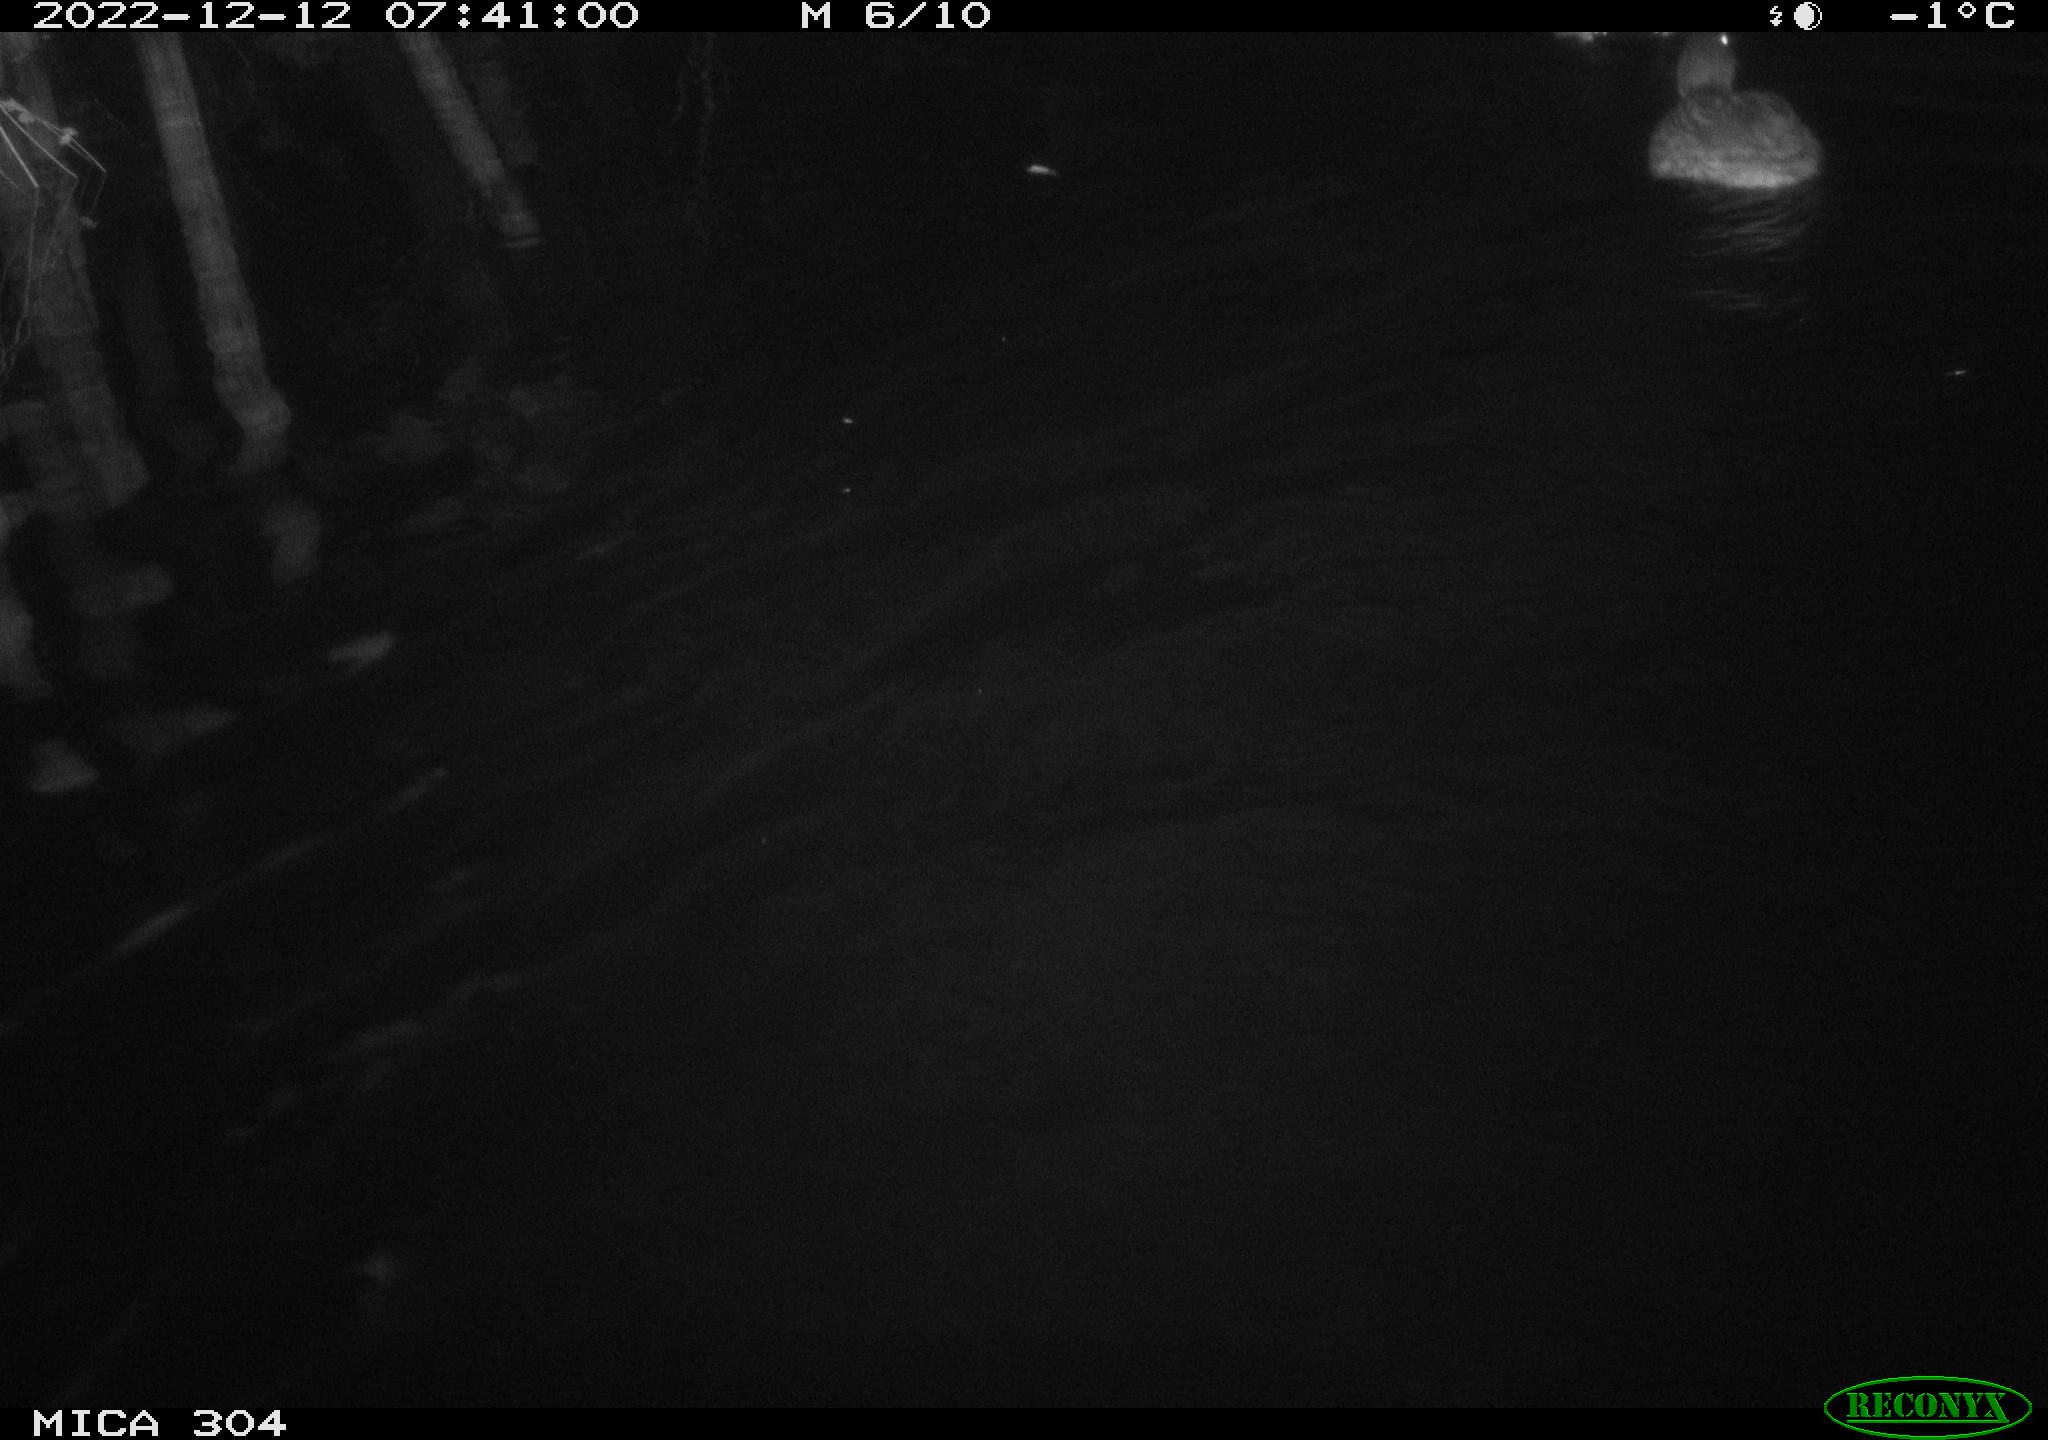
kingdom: Animalia
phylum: Chordata
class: Aves
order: Anseriformes
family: Anatidae
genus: Anas
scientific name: Anas
